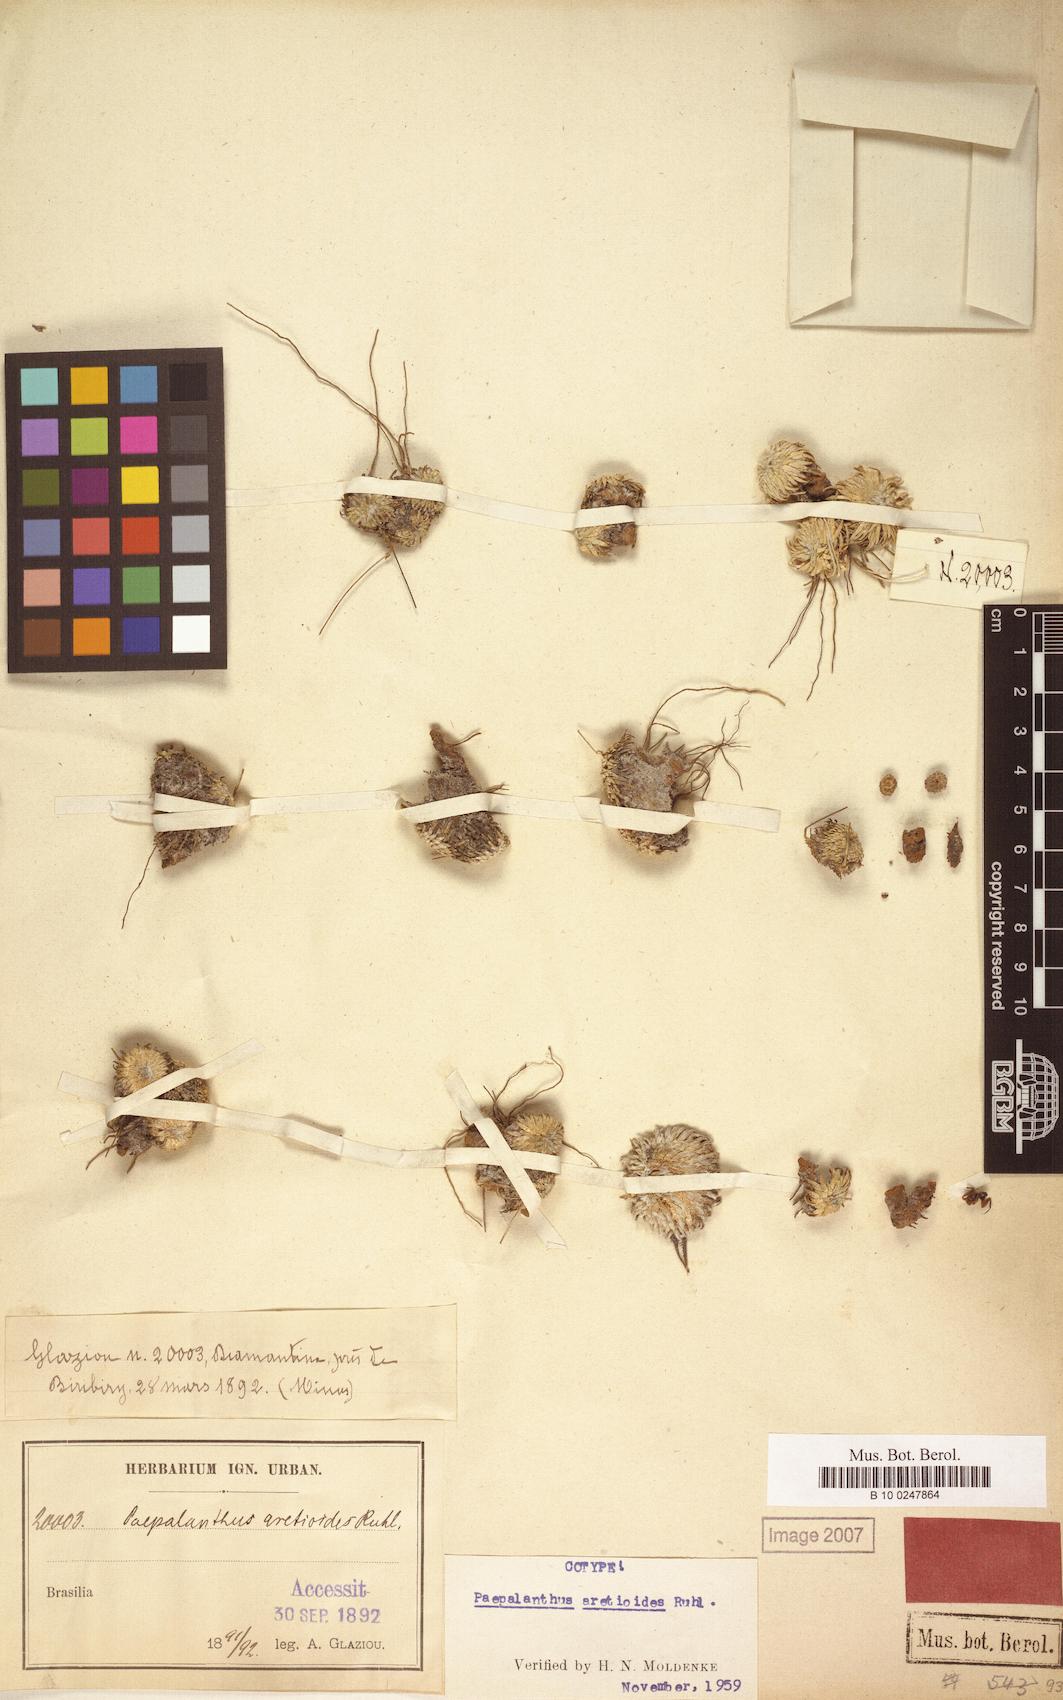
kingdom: Plantae
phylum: Tracheophyta
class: Liliopsida
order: Poales
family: Eriocaulaceae
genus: Paepalanthus
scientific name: Paepalanthus aretioides
